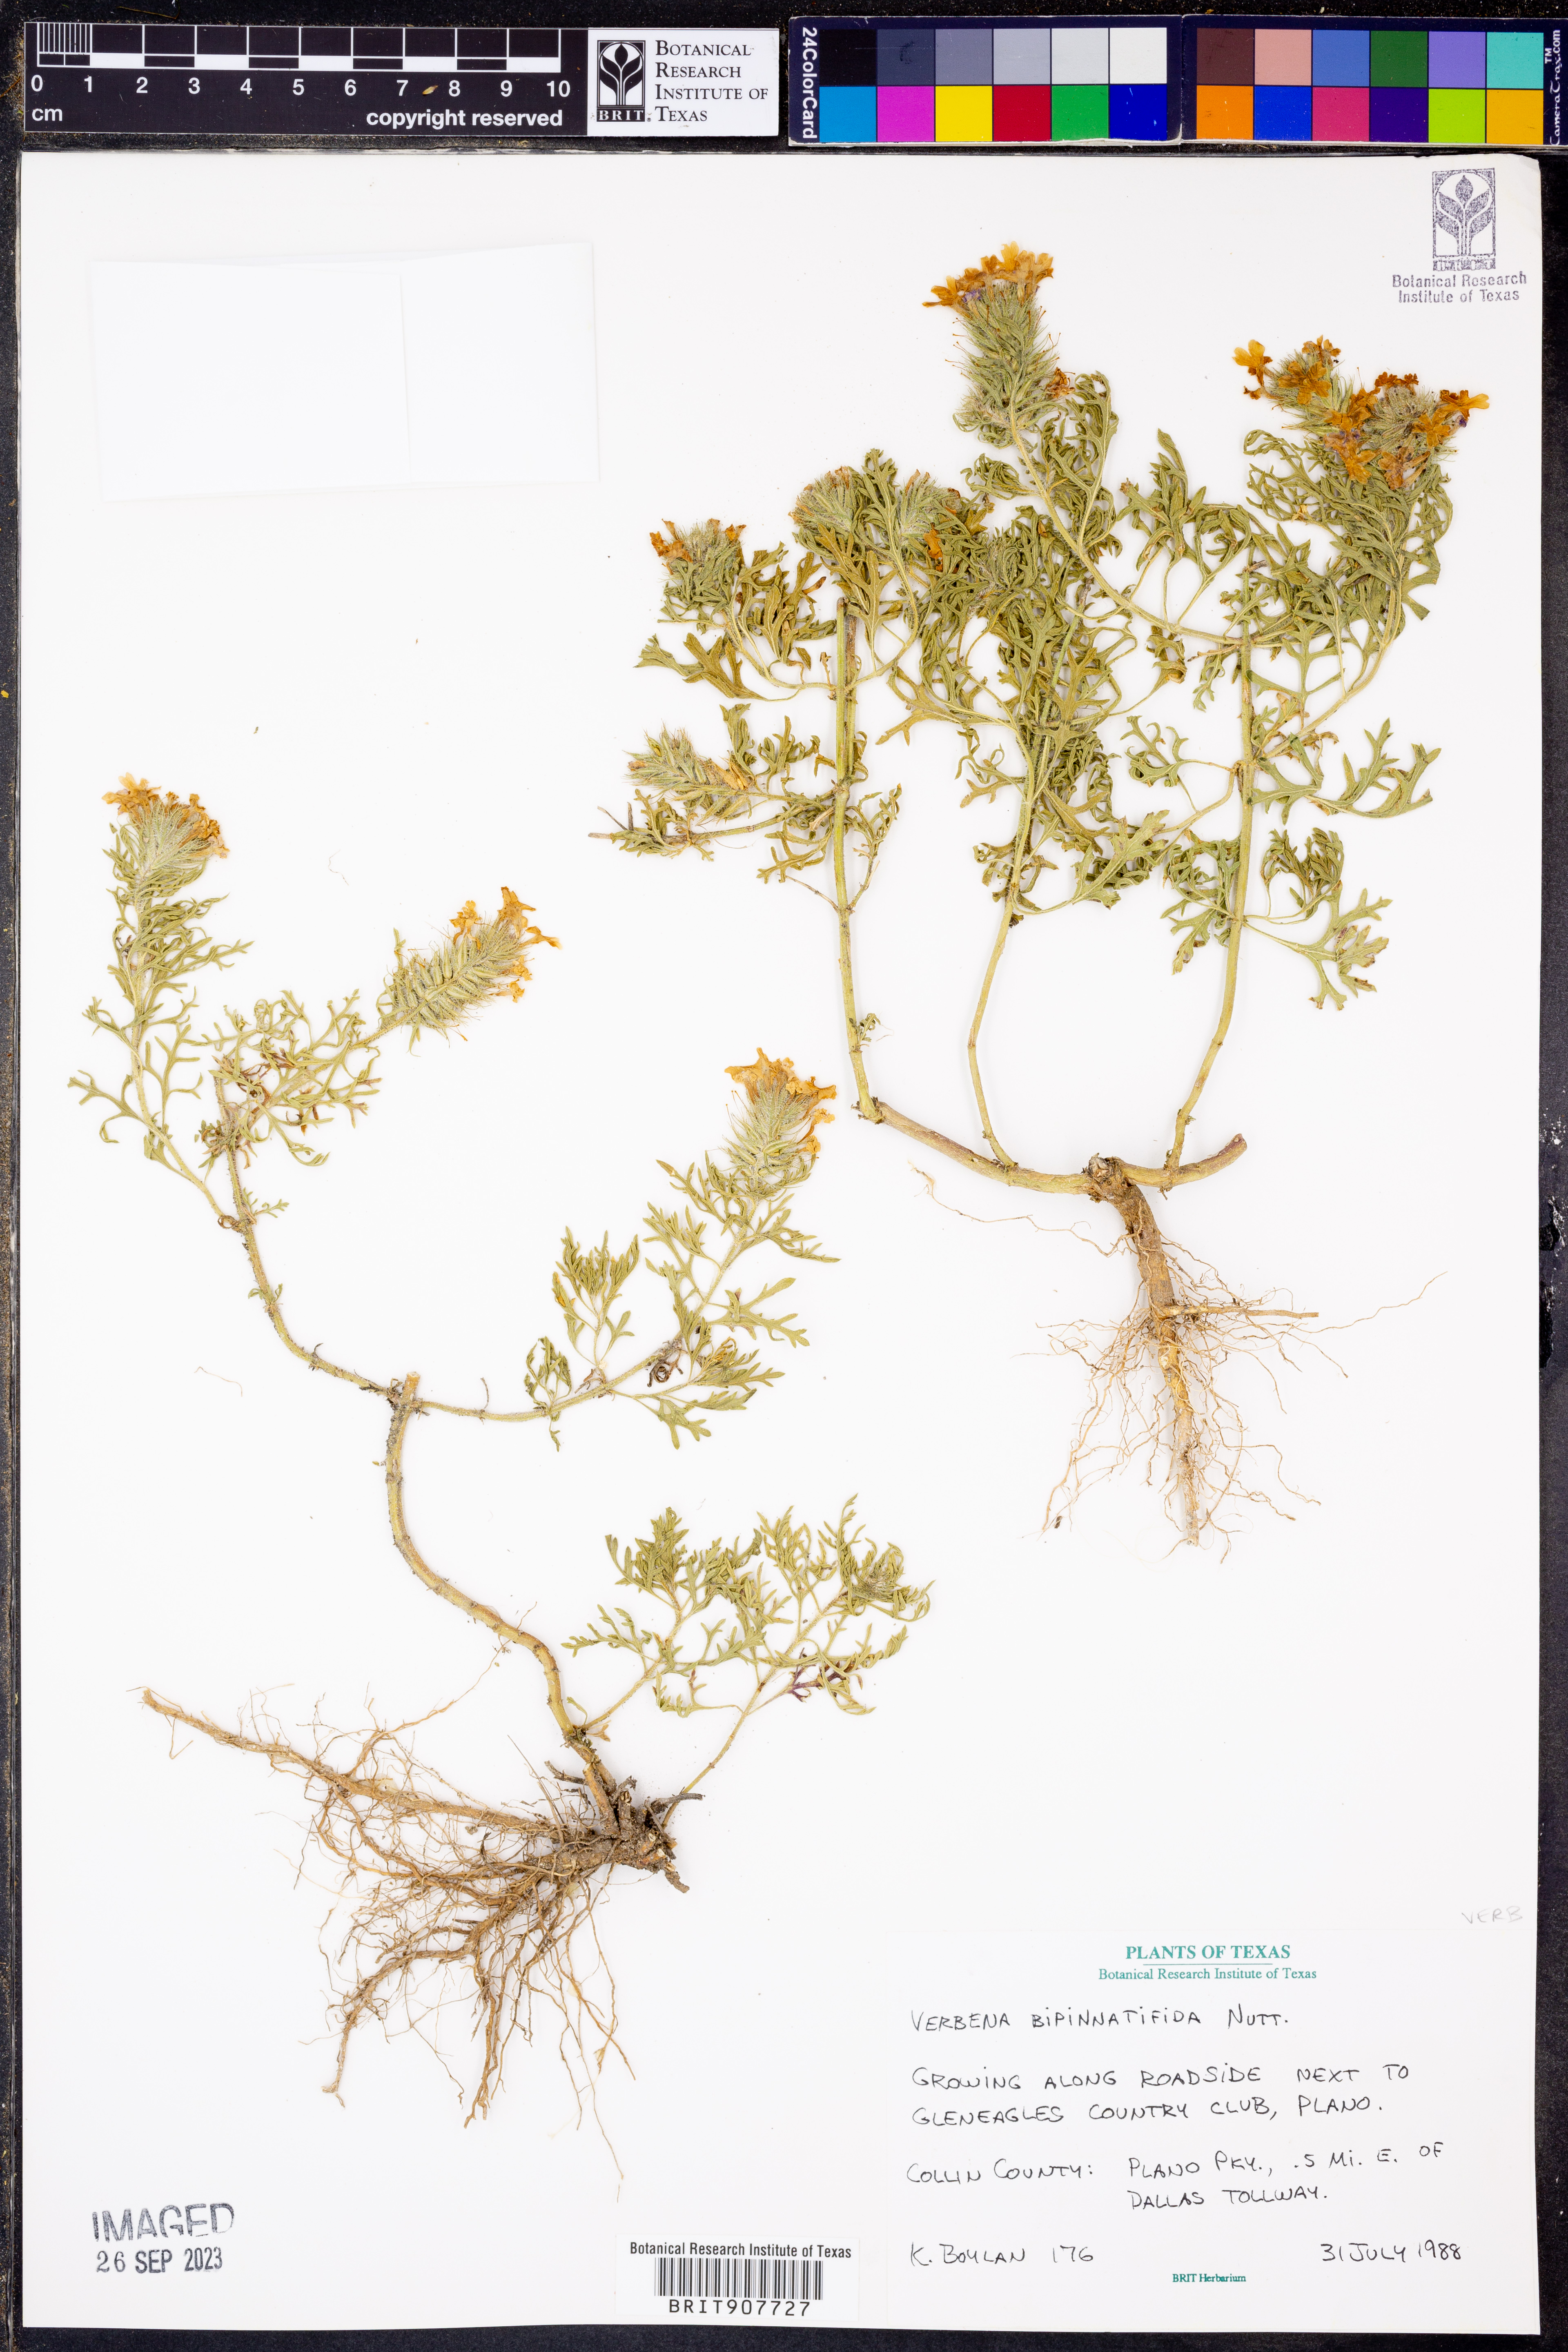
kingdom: Plantae
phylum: Tracheophyta
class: Magnoliopsida
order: Lamiales
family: Verbenaceae
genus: Verbena
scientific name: Verbena bipinnatifida
